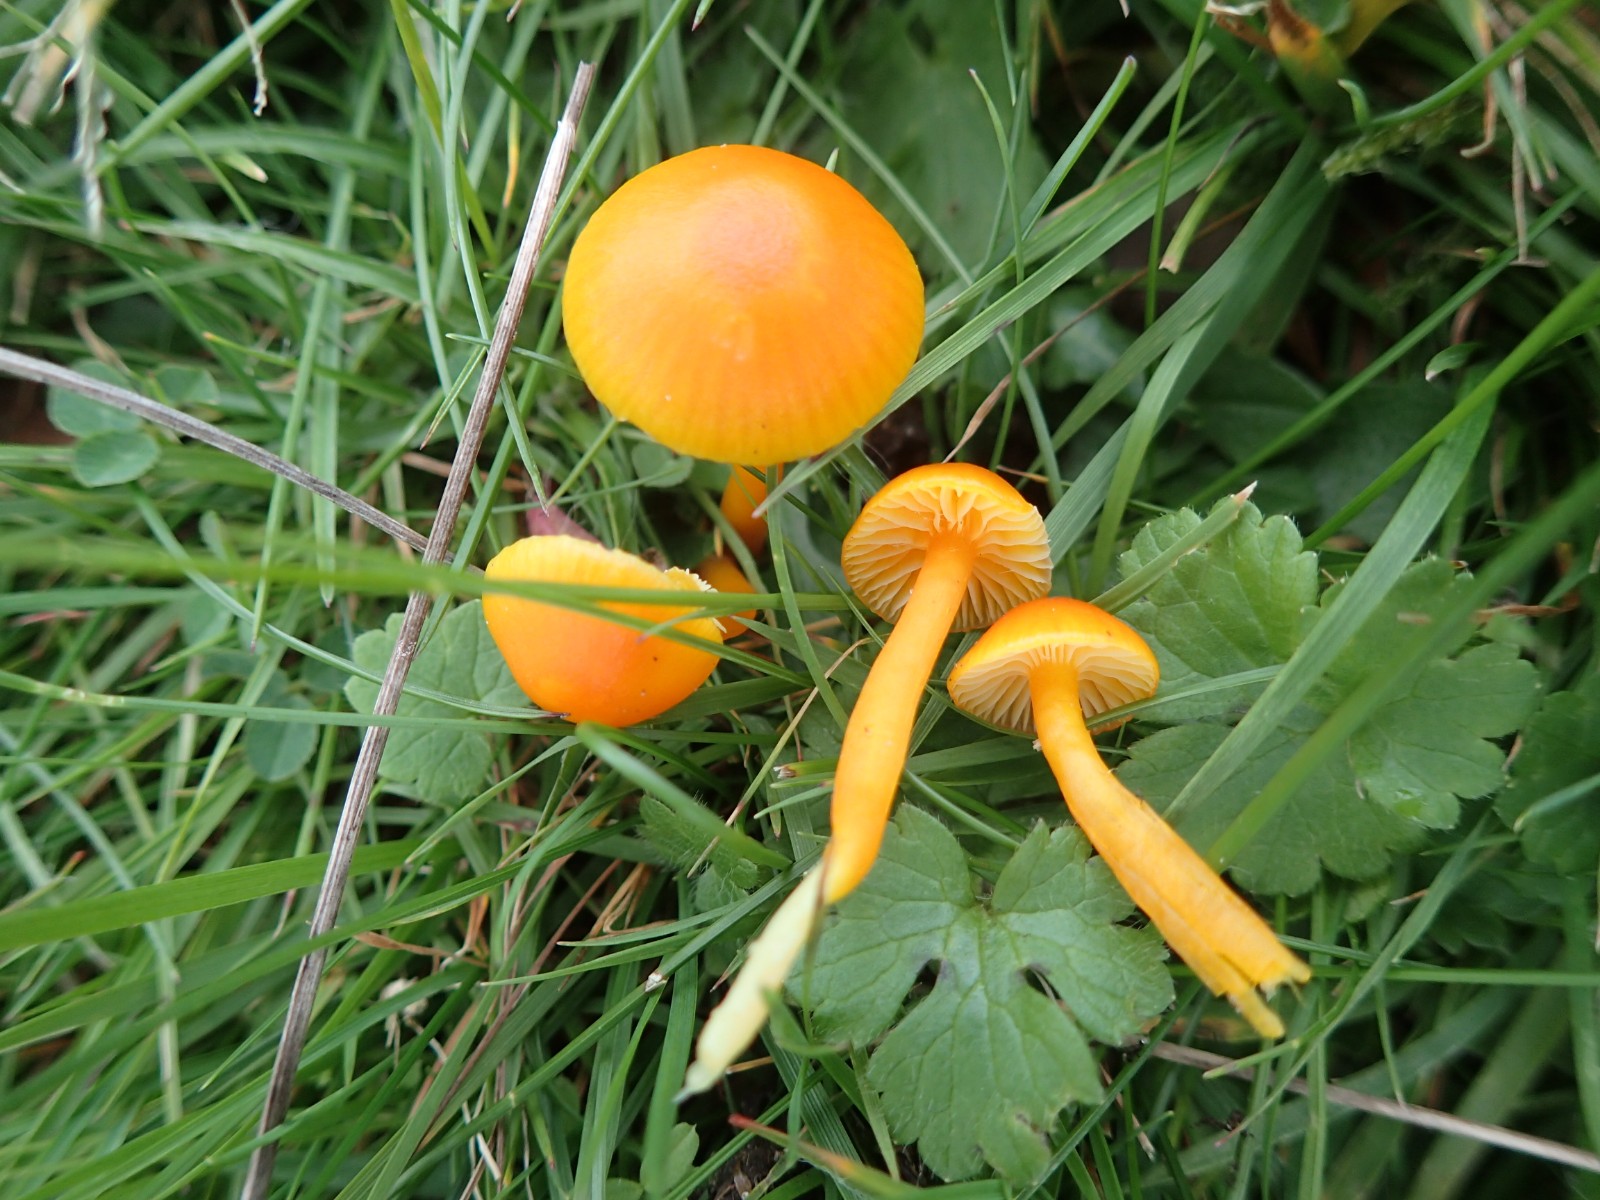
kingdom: Fungi
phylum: Basidiomycota
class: Agaricomycetes
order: Agaricales
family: Hygrophoraceae
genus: Hygrocybe
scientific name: Hygrocybe ceracea
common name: voksgul vokshat
